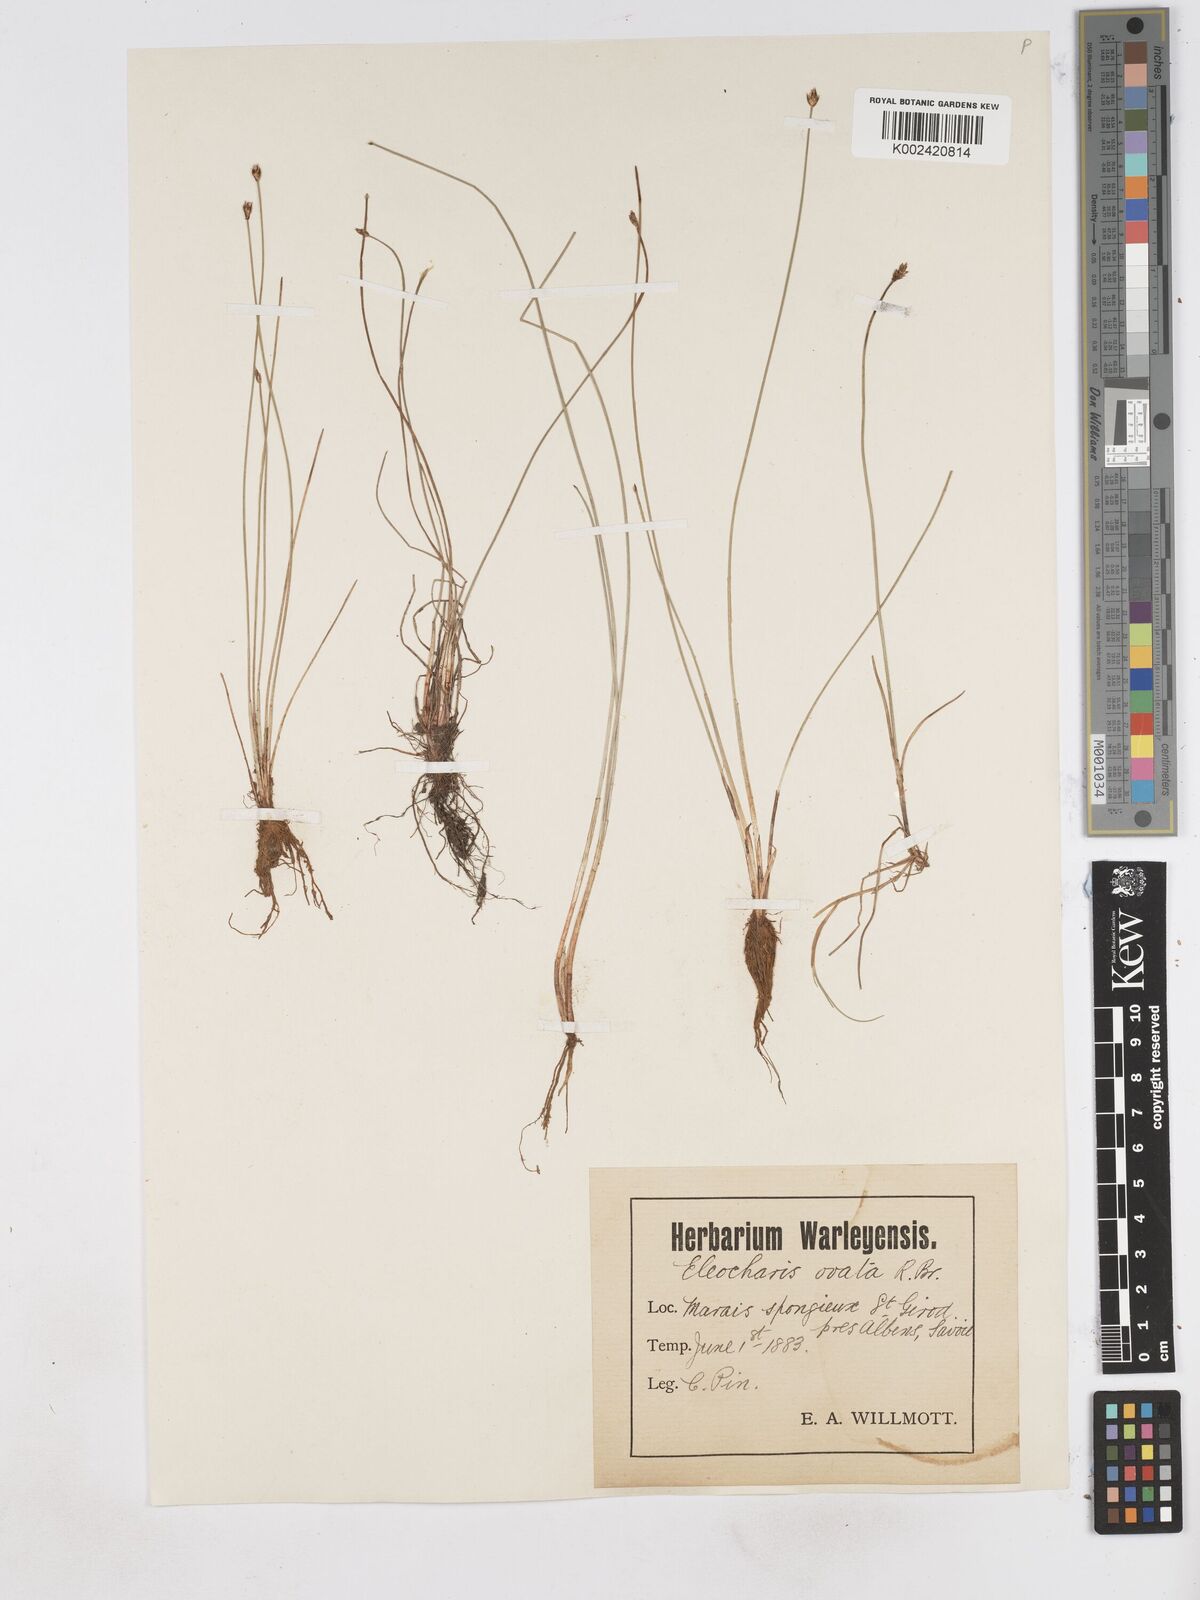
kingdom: Plantae
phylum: Tracheophyta
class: Liliopsida
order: Poales
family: Cyperaceae
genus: Eleocharis
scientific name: Eleocharis quinqueflora
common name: Few-flowered spike-rush
